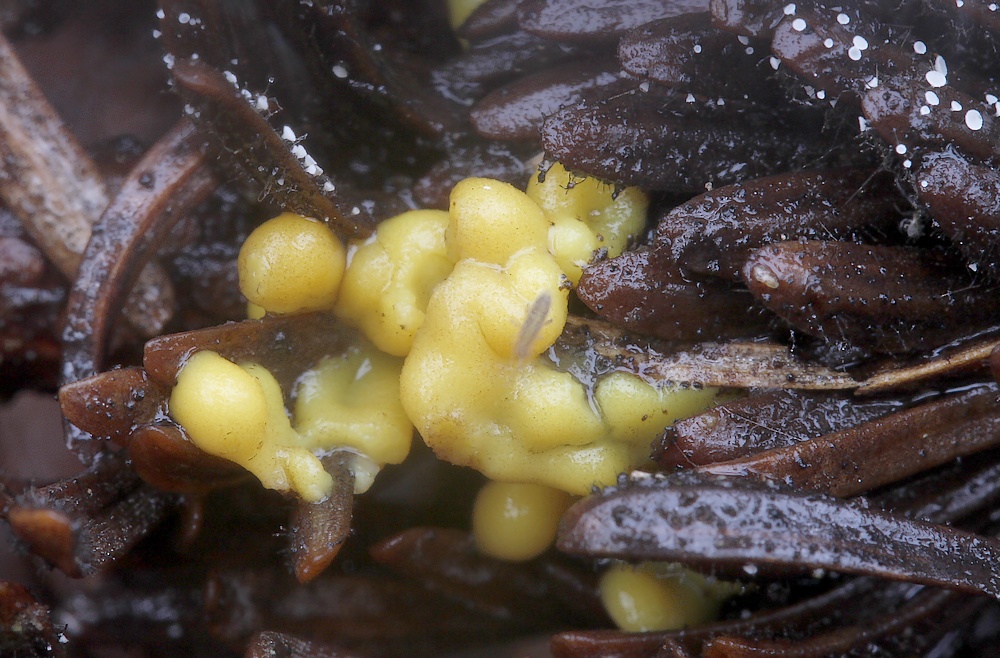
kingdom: Protozoa
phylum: Mycetozoa
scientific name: Mycetozoa
